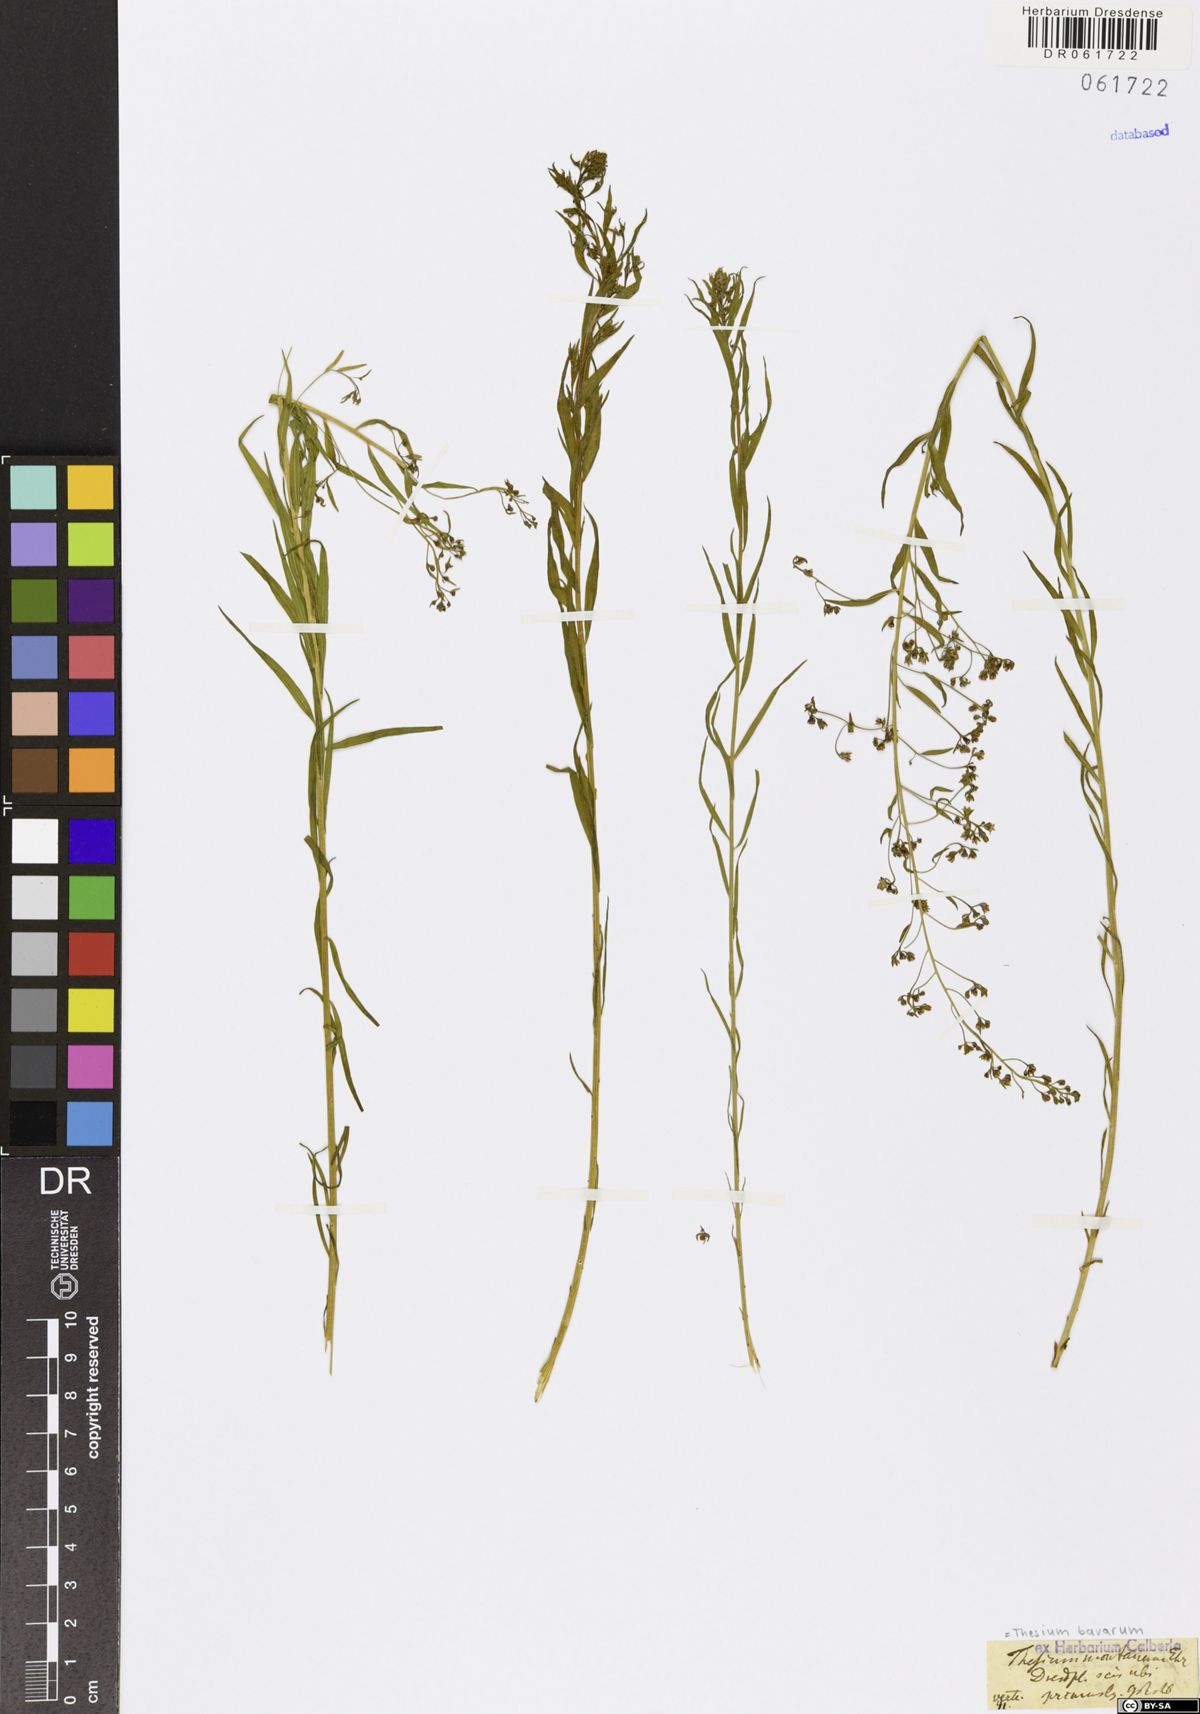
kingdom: Plantae
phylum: Tracheophyta
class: Magnoliopsida
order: Santalales
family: Thesiaceae
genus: Thesium
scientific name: Thesium bavarum
